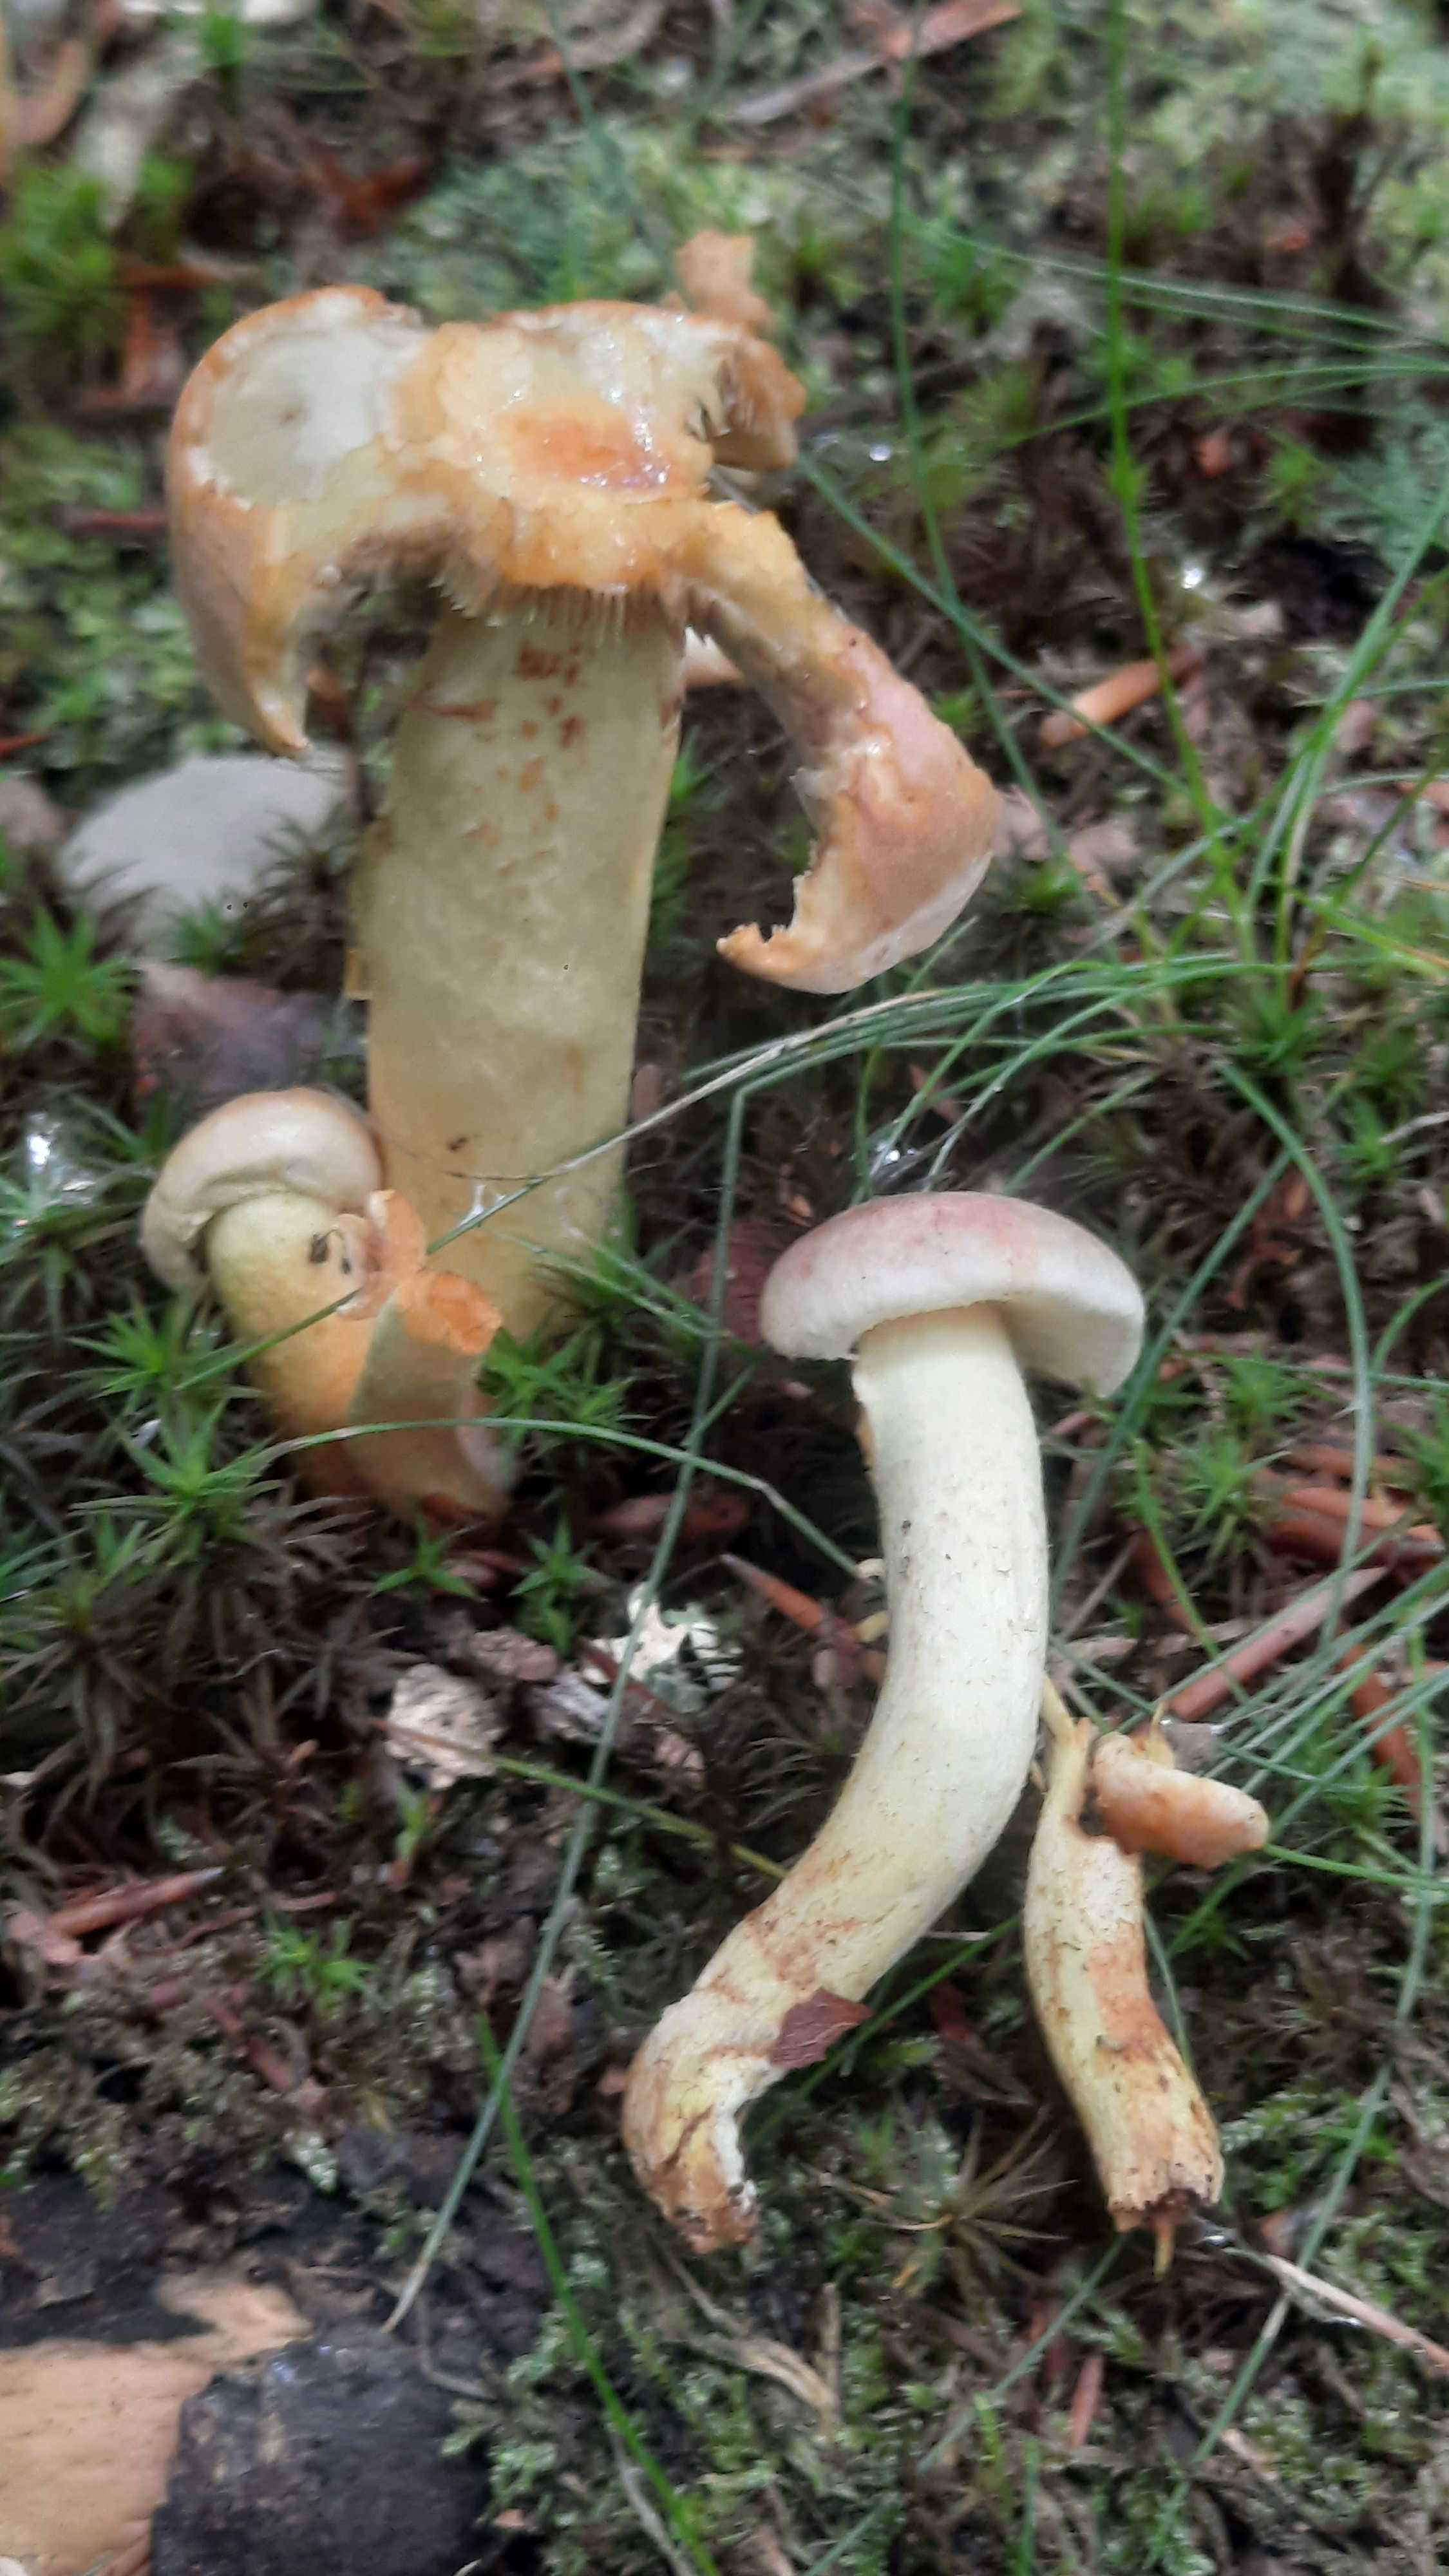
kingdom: Fungi
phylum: Basidiomycota
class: Agaricomycetes
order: Agaricales
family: Strophariaceae
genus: Hypholoma
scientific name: Hypholoma lateritium
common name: teglrød svovlhat
